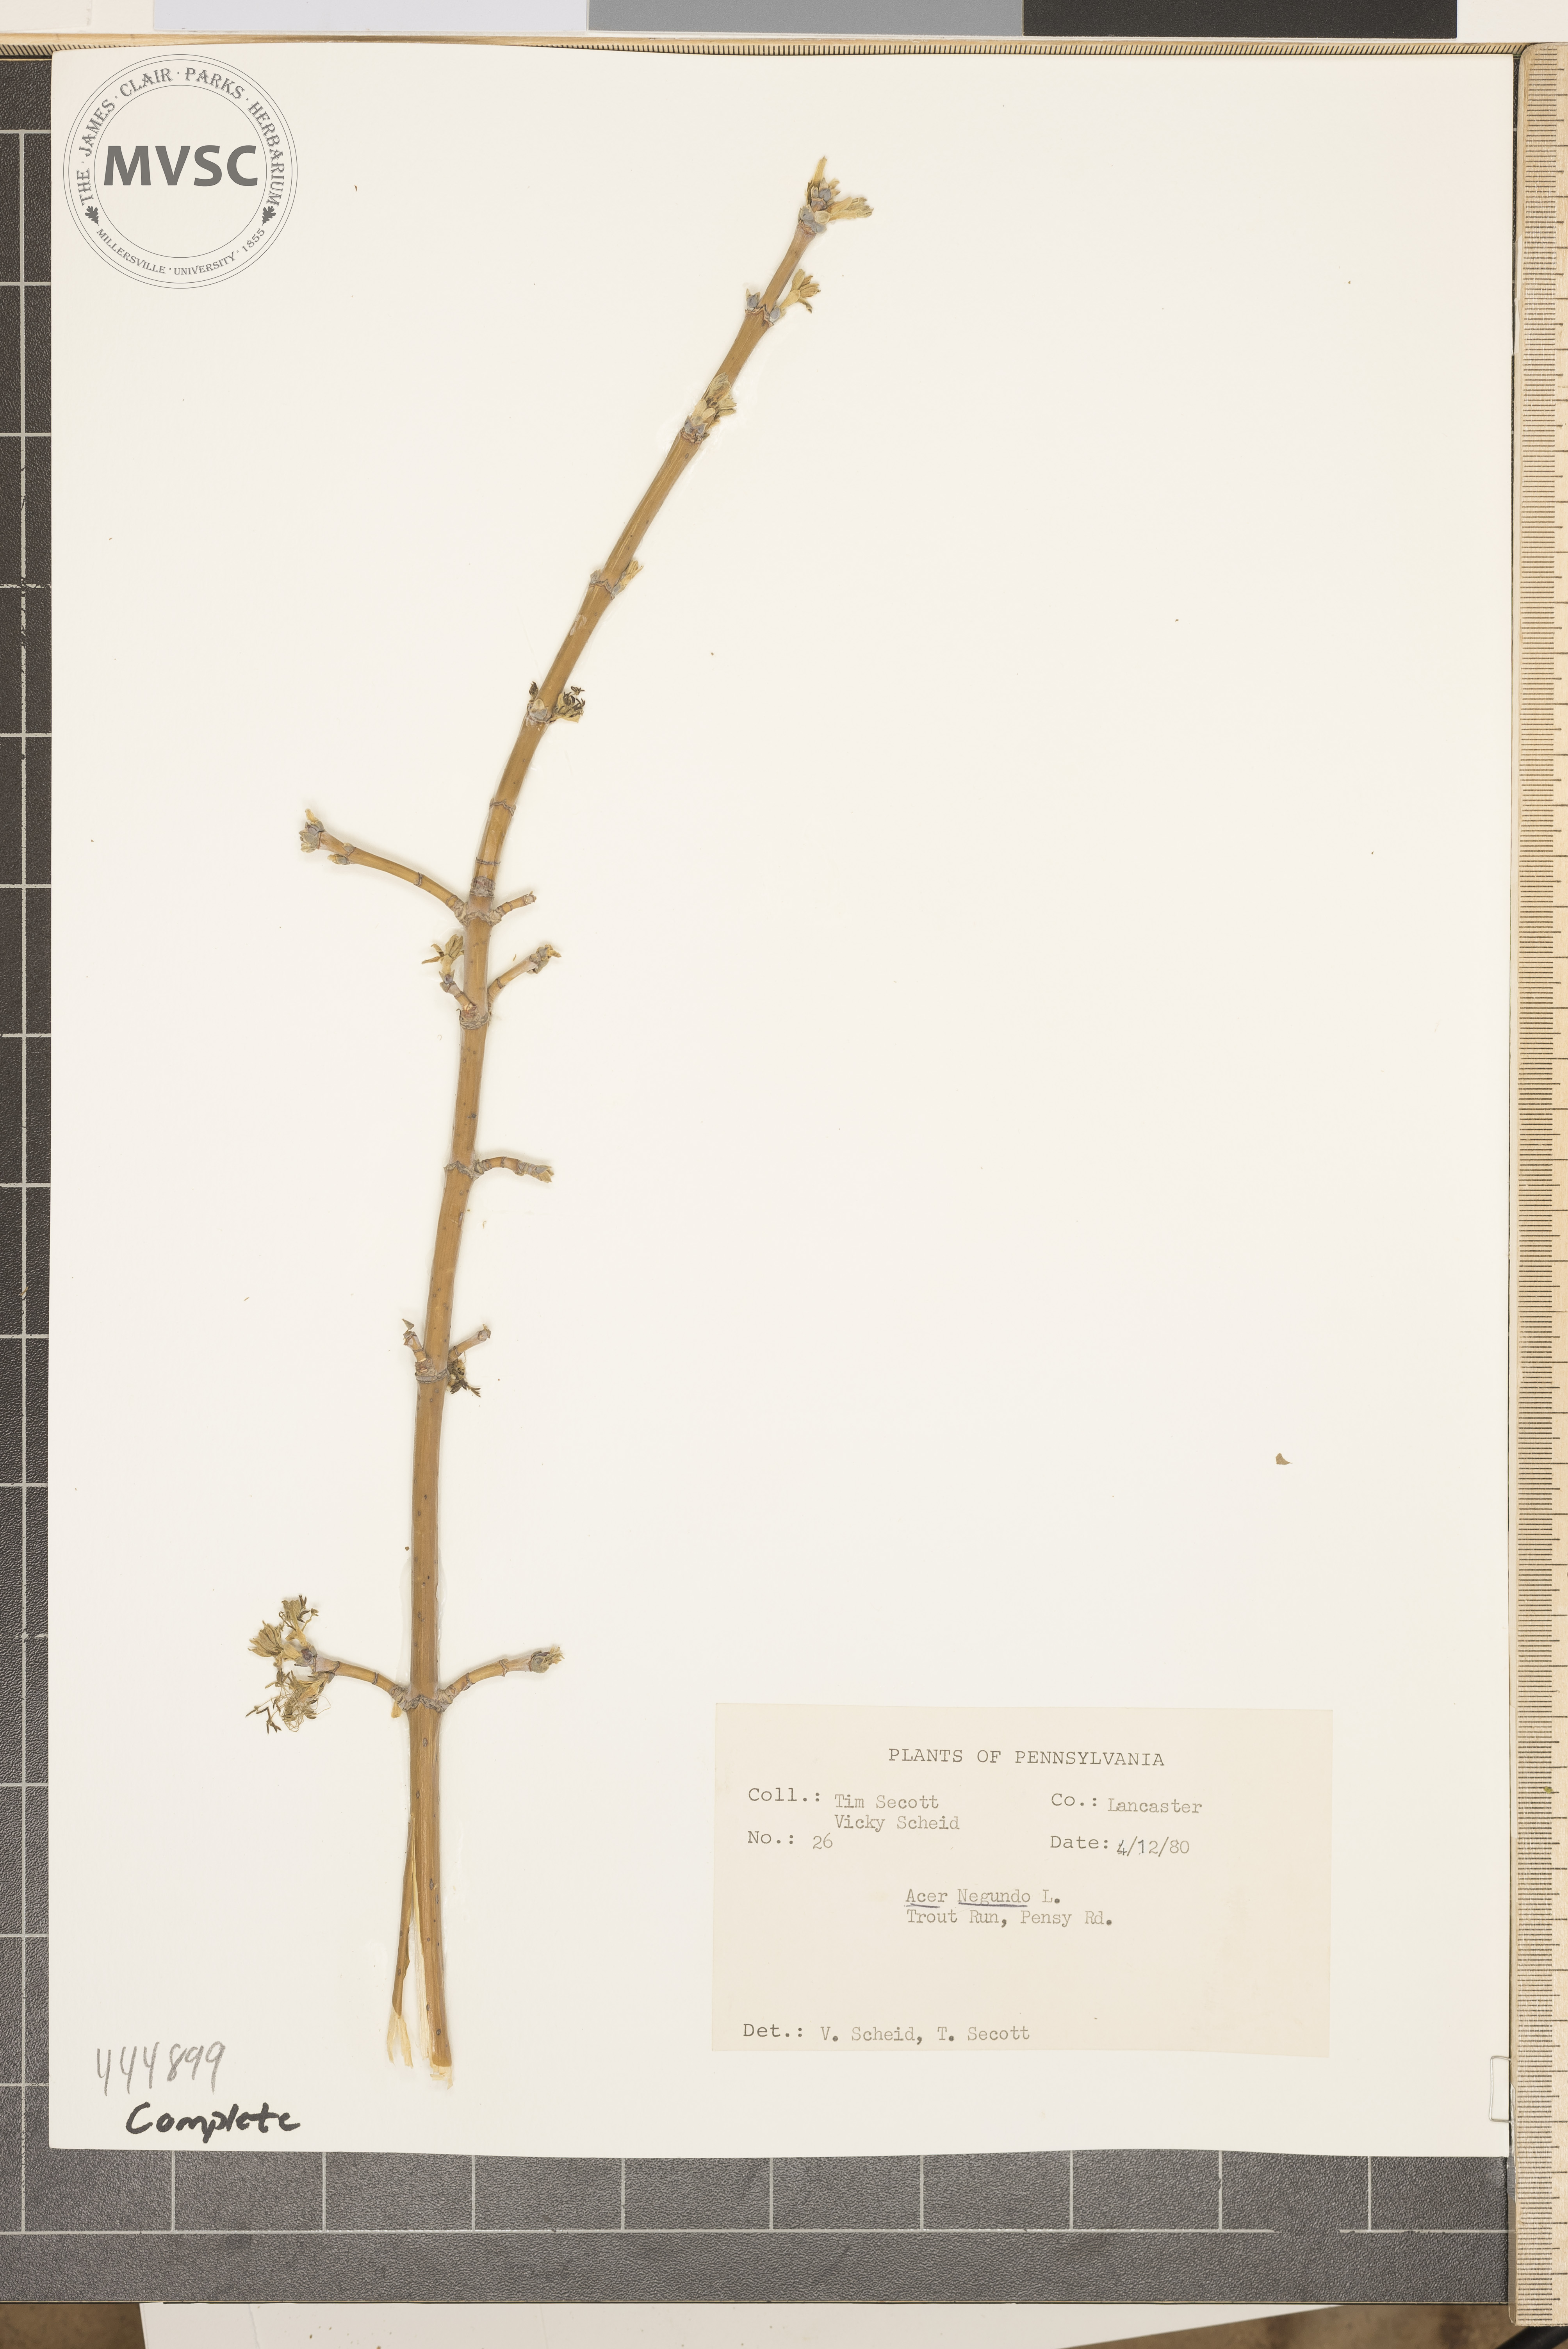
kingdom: Plantae
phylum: Tracheophyta
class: Magnoliopsida
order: Sapindales
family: Sapindaceae
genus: Acer
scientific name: Acer negundo
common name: Ashleaf maple
